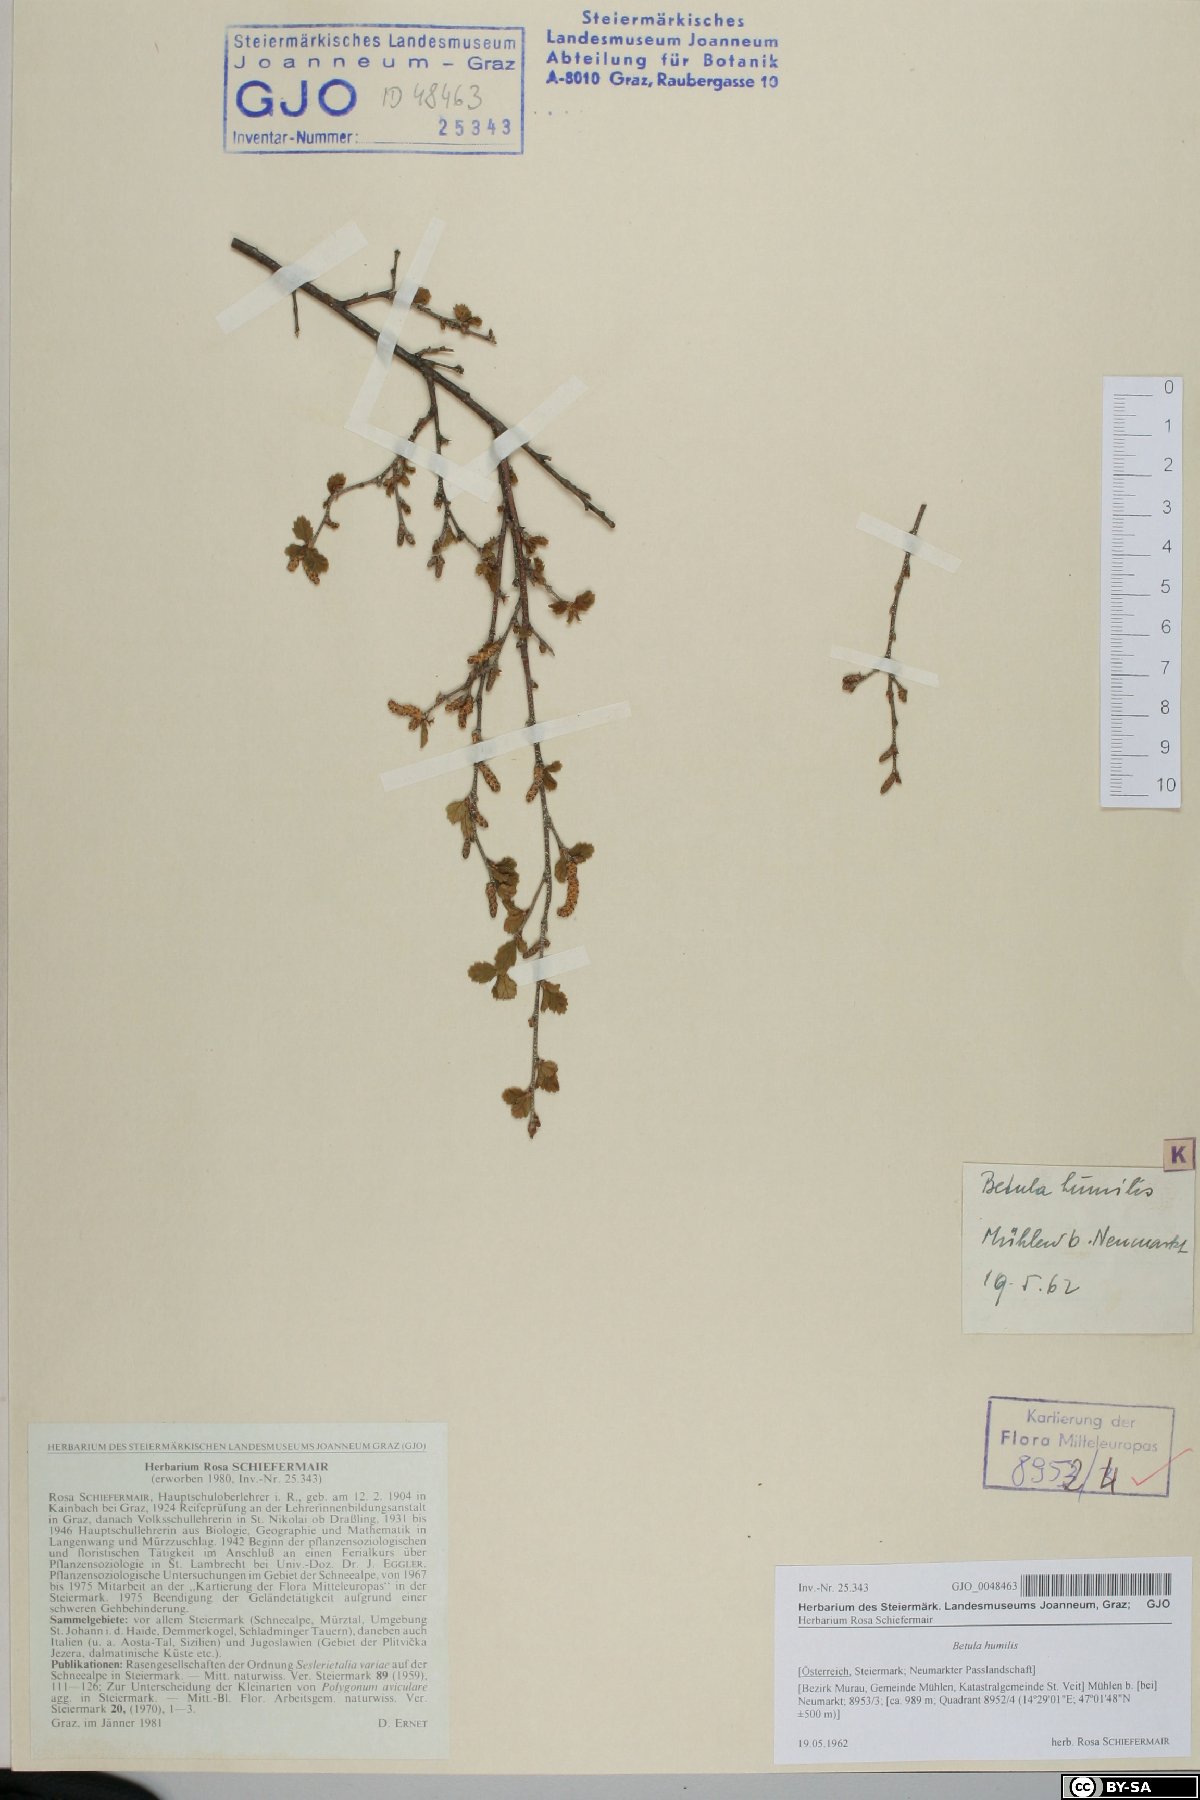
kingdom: Plantae
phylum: Tracheophyta
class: Magnoliopsida
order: Fagales
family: Betulaceae
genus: Betula
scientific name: Betula humilis
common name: Shrubby birch
